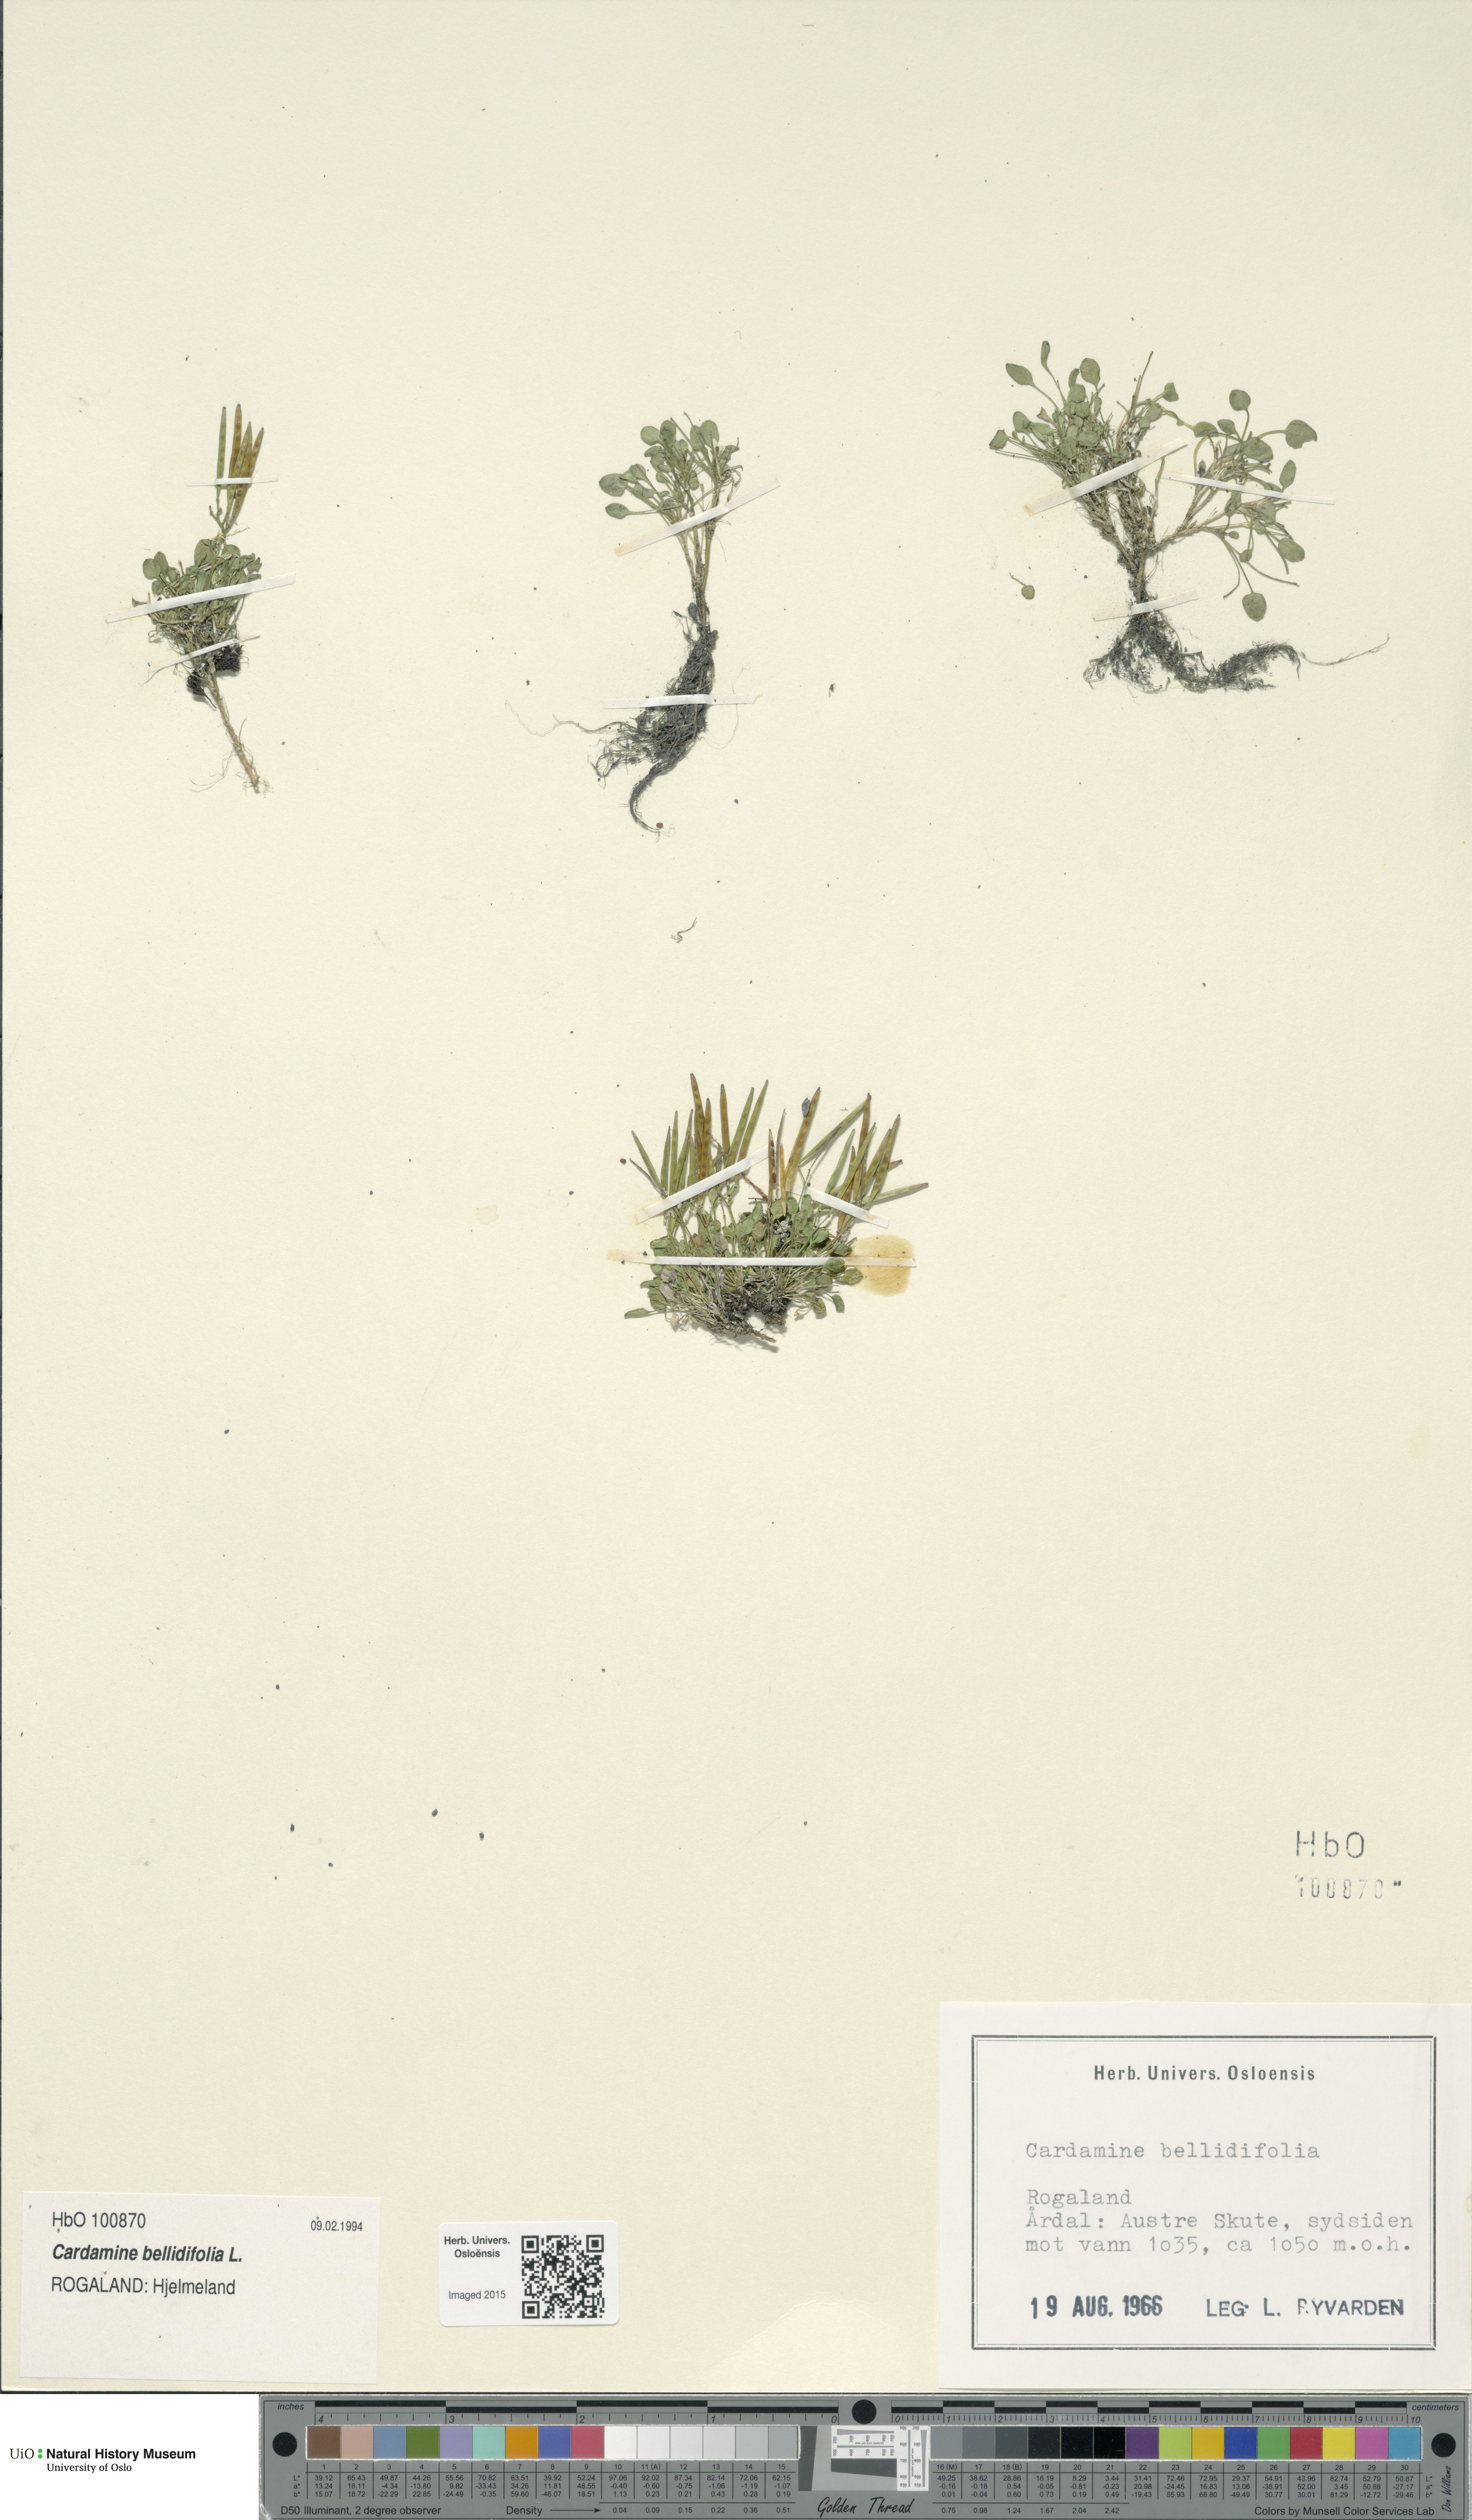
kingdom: Plantae
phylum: Tracheophyta
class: Magnoliopsida
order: Brassicales
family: Brassicaceae
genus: Cardamine
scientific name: Cardamine bellidifolia
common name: Alpine bittercress
